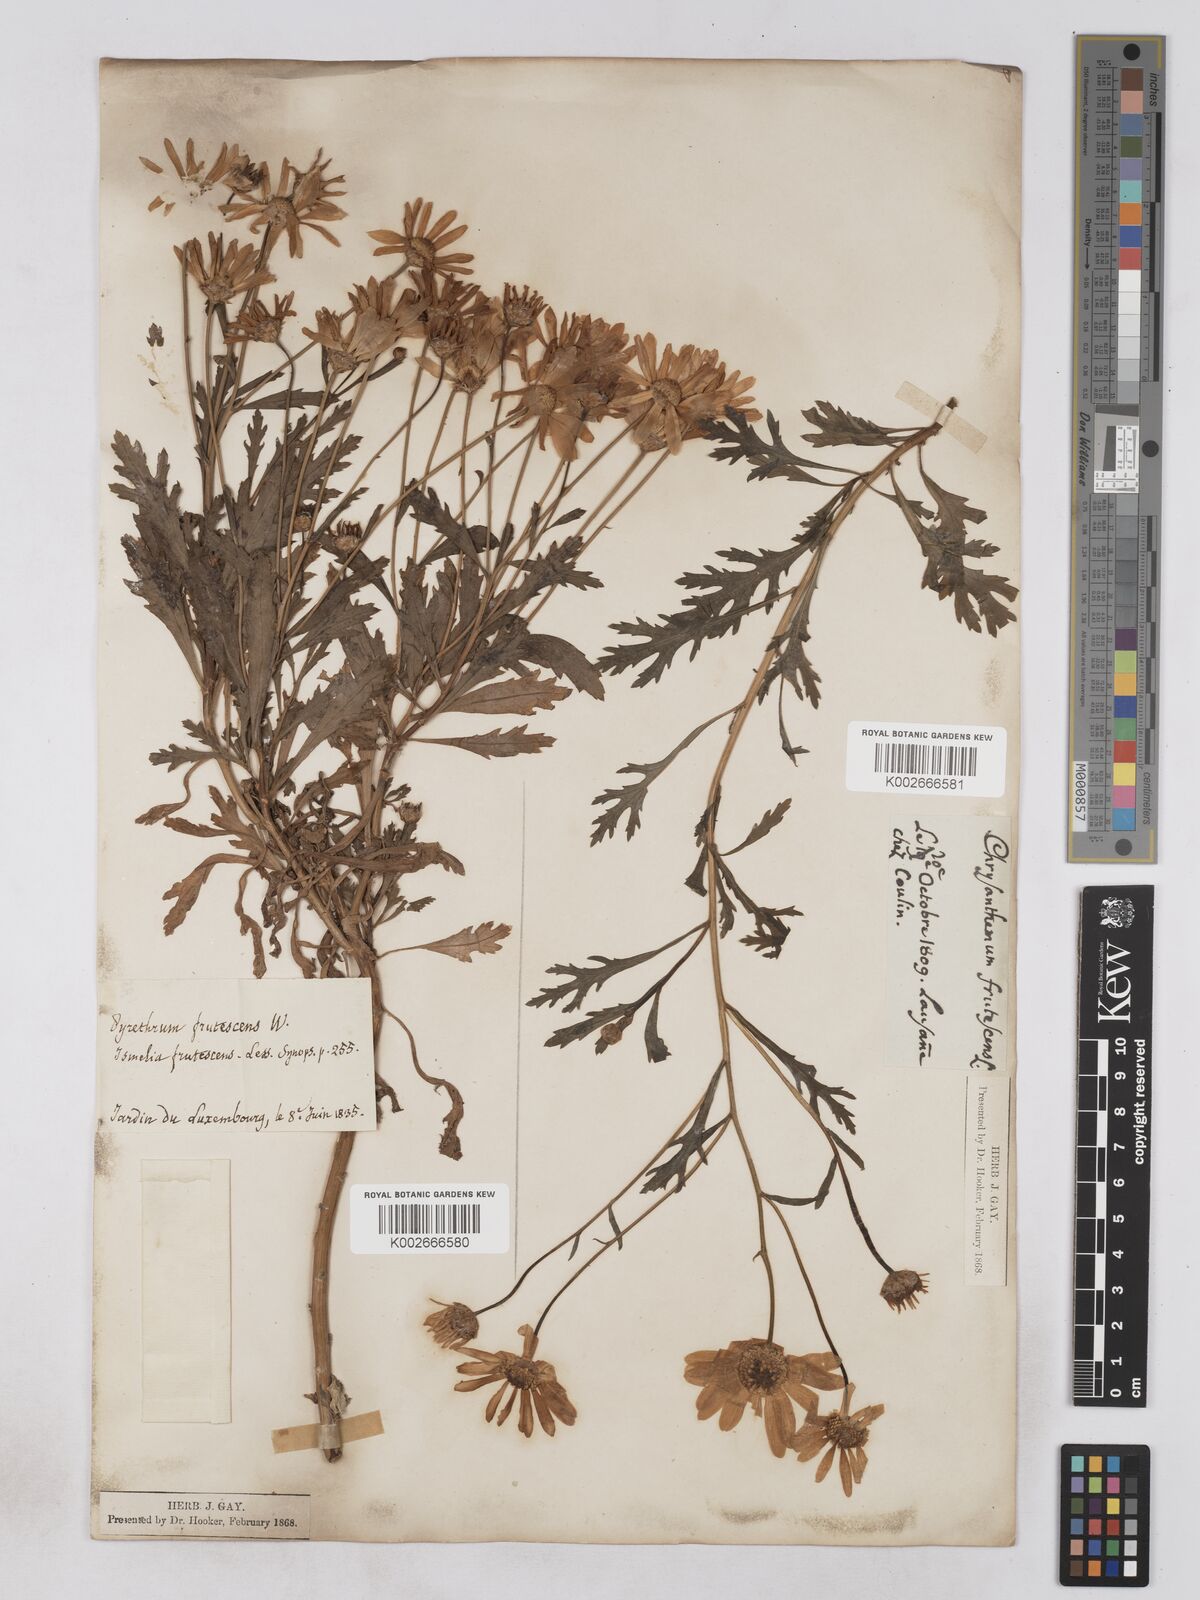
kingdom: Plantae
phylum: Tracheophyta
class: Magnoliopsida
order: Asterales
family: Asteraceae
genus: Argyranthemum
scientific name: Argyranthemum frutescens
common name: Paris daisy
